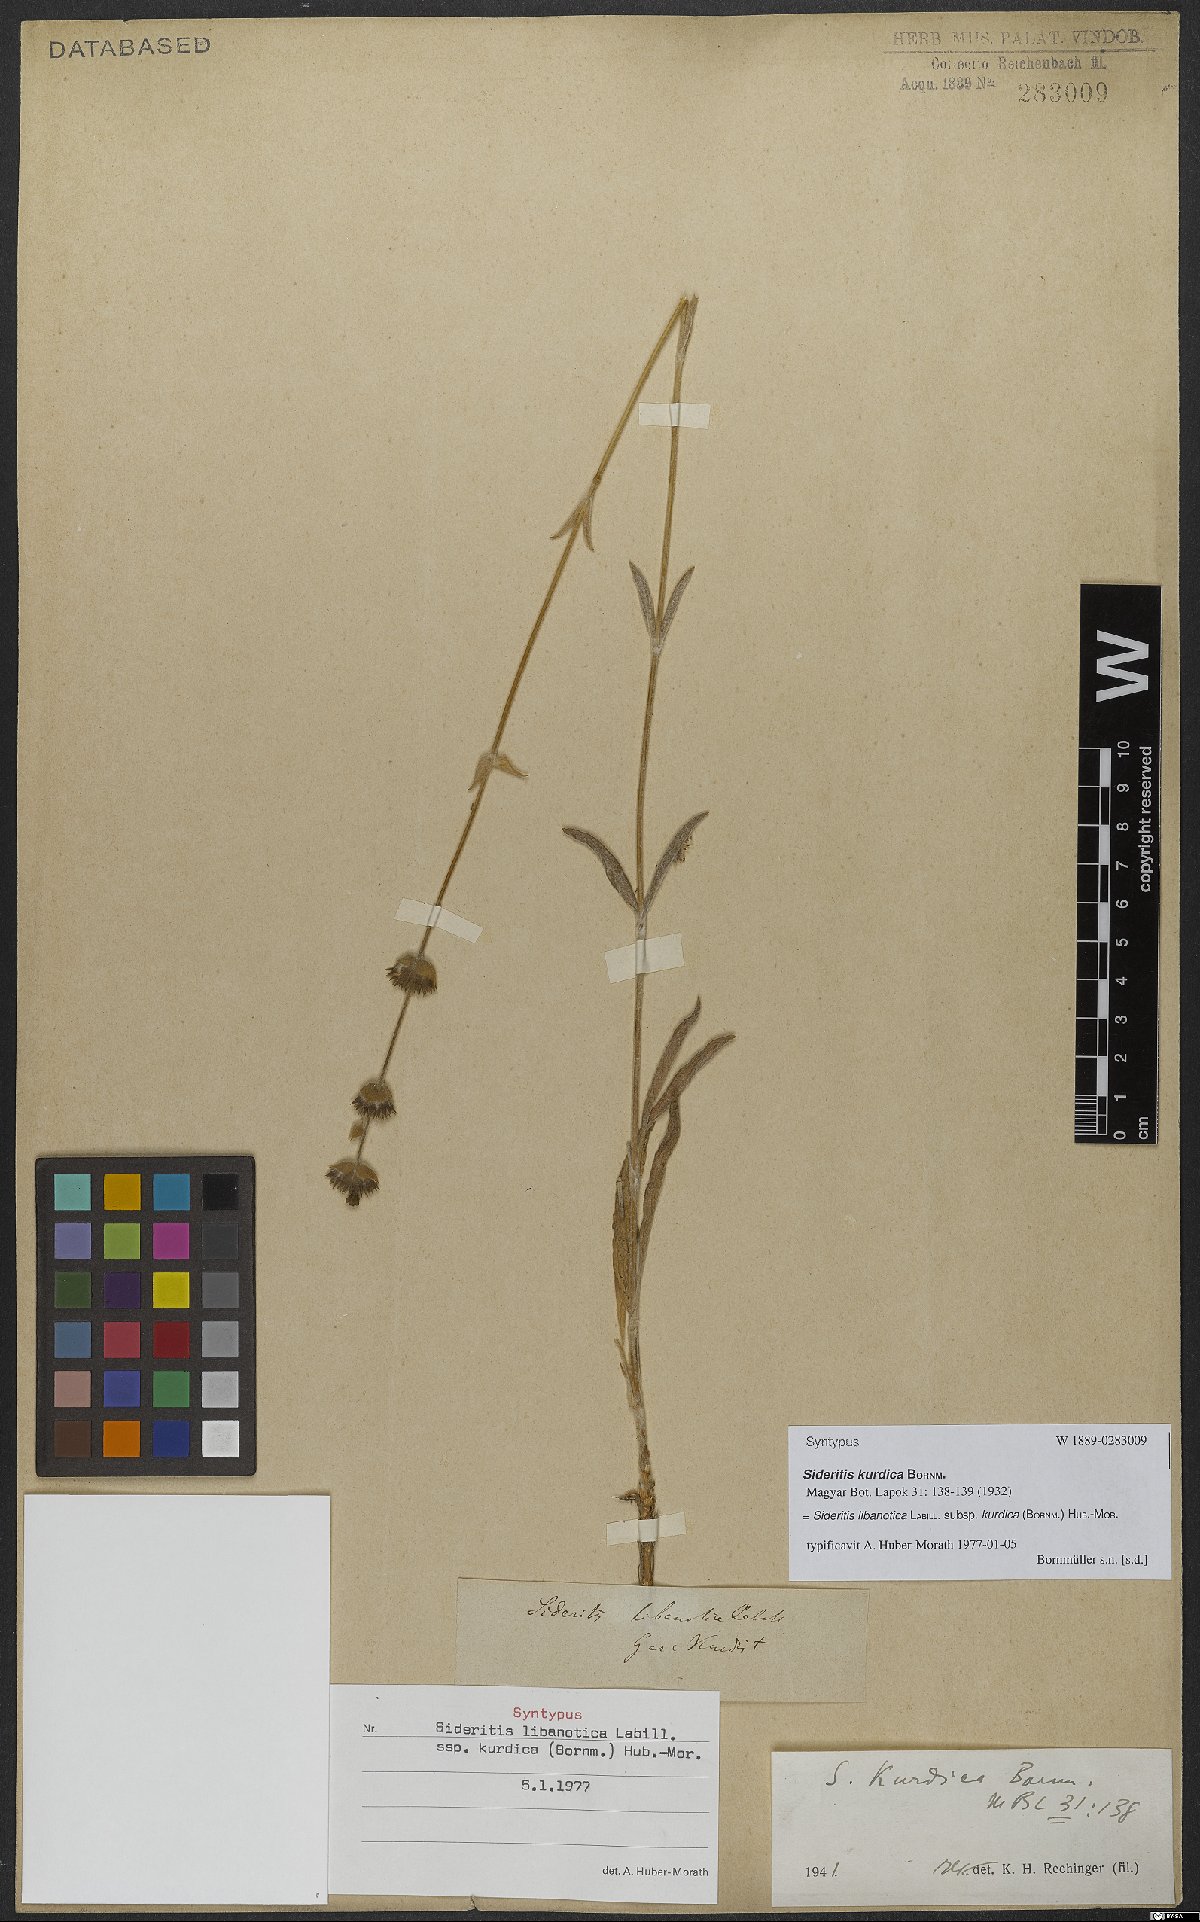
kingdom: Plantae
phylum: Tracheophyta
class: Magnoliopsida
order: Lamiales
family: Lamiaceae
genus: Sideritis
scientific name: Sideritis libanotica
